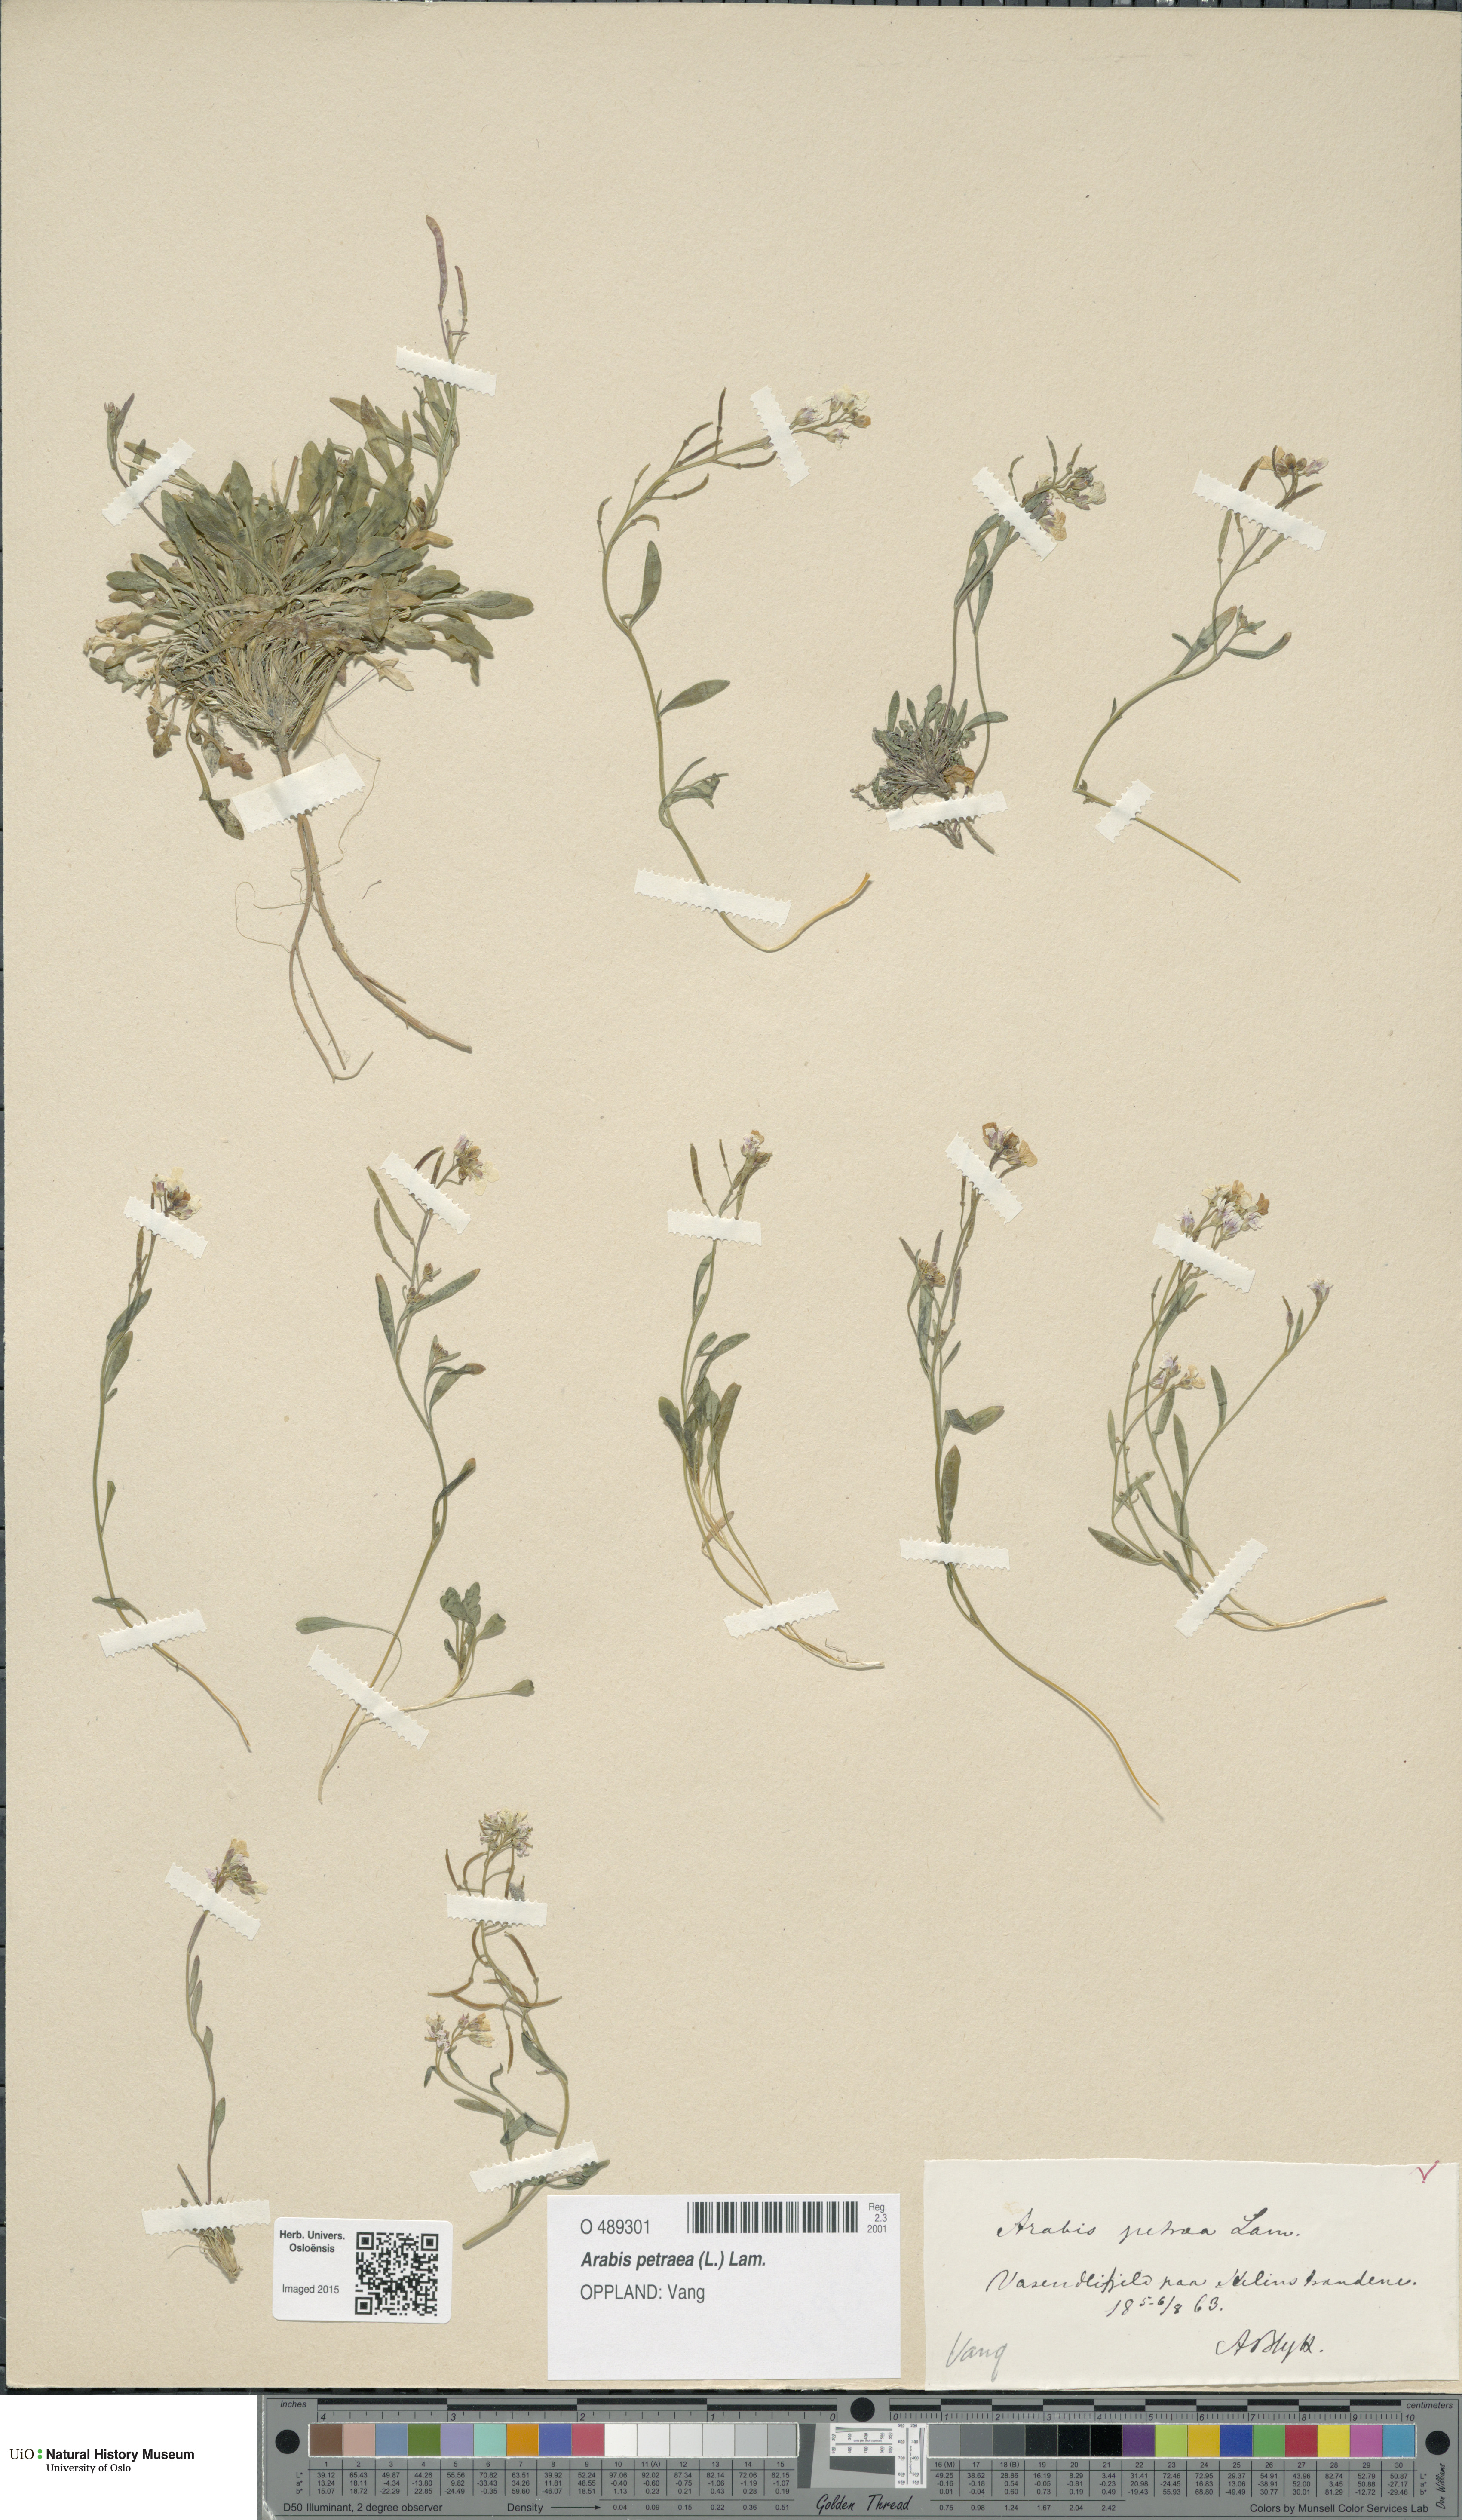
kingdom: Plantae
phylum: Tracheophyta
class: Magnoliopsida
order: Brassicales
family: Brassicaceae
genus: Arabidopsis
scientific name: Arabidopsis petraea
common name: Northern rock-cress
